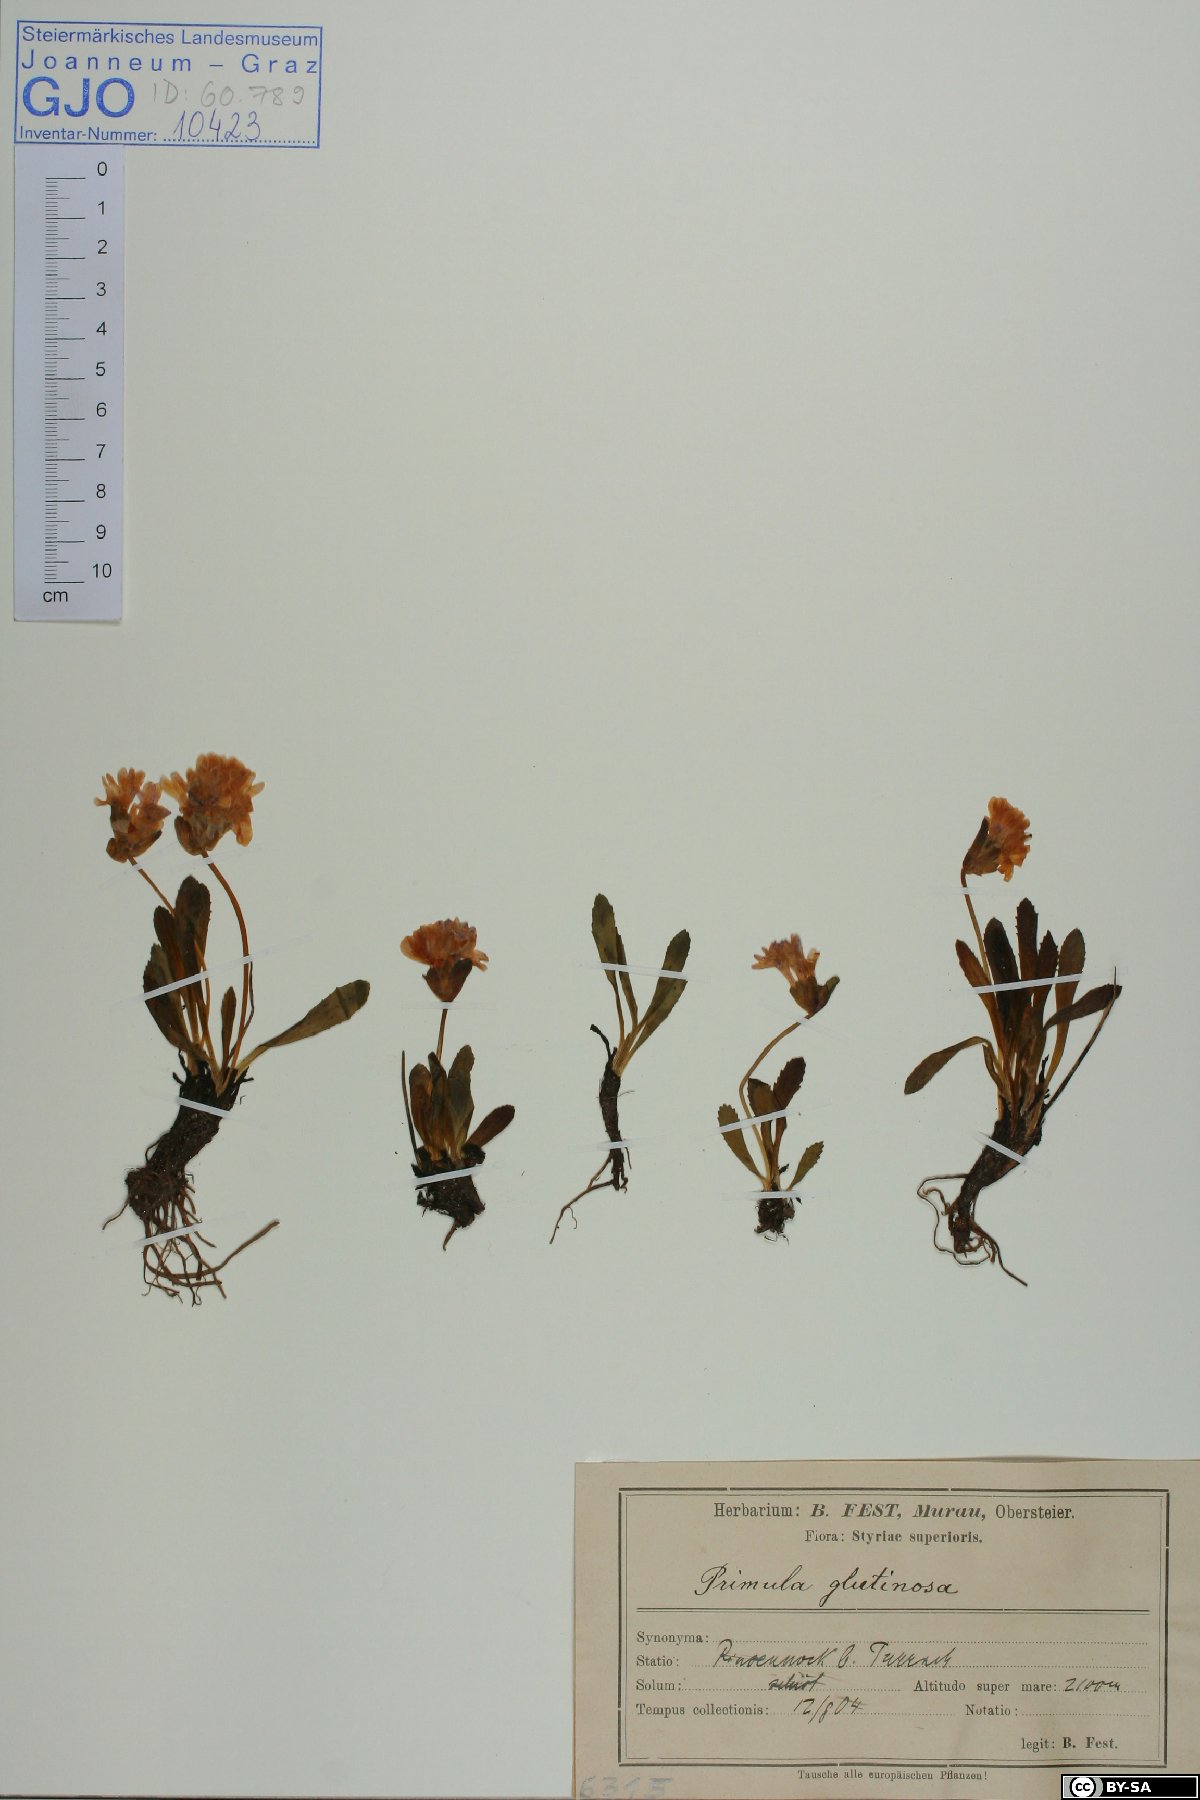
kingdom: Plantae
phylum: Tracheophyta
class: Magnoliopsida
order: Ericales
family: Primulaceae
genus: Primula
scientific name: Primula glutinosa
